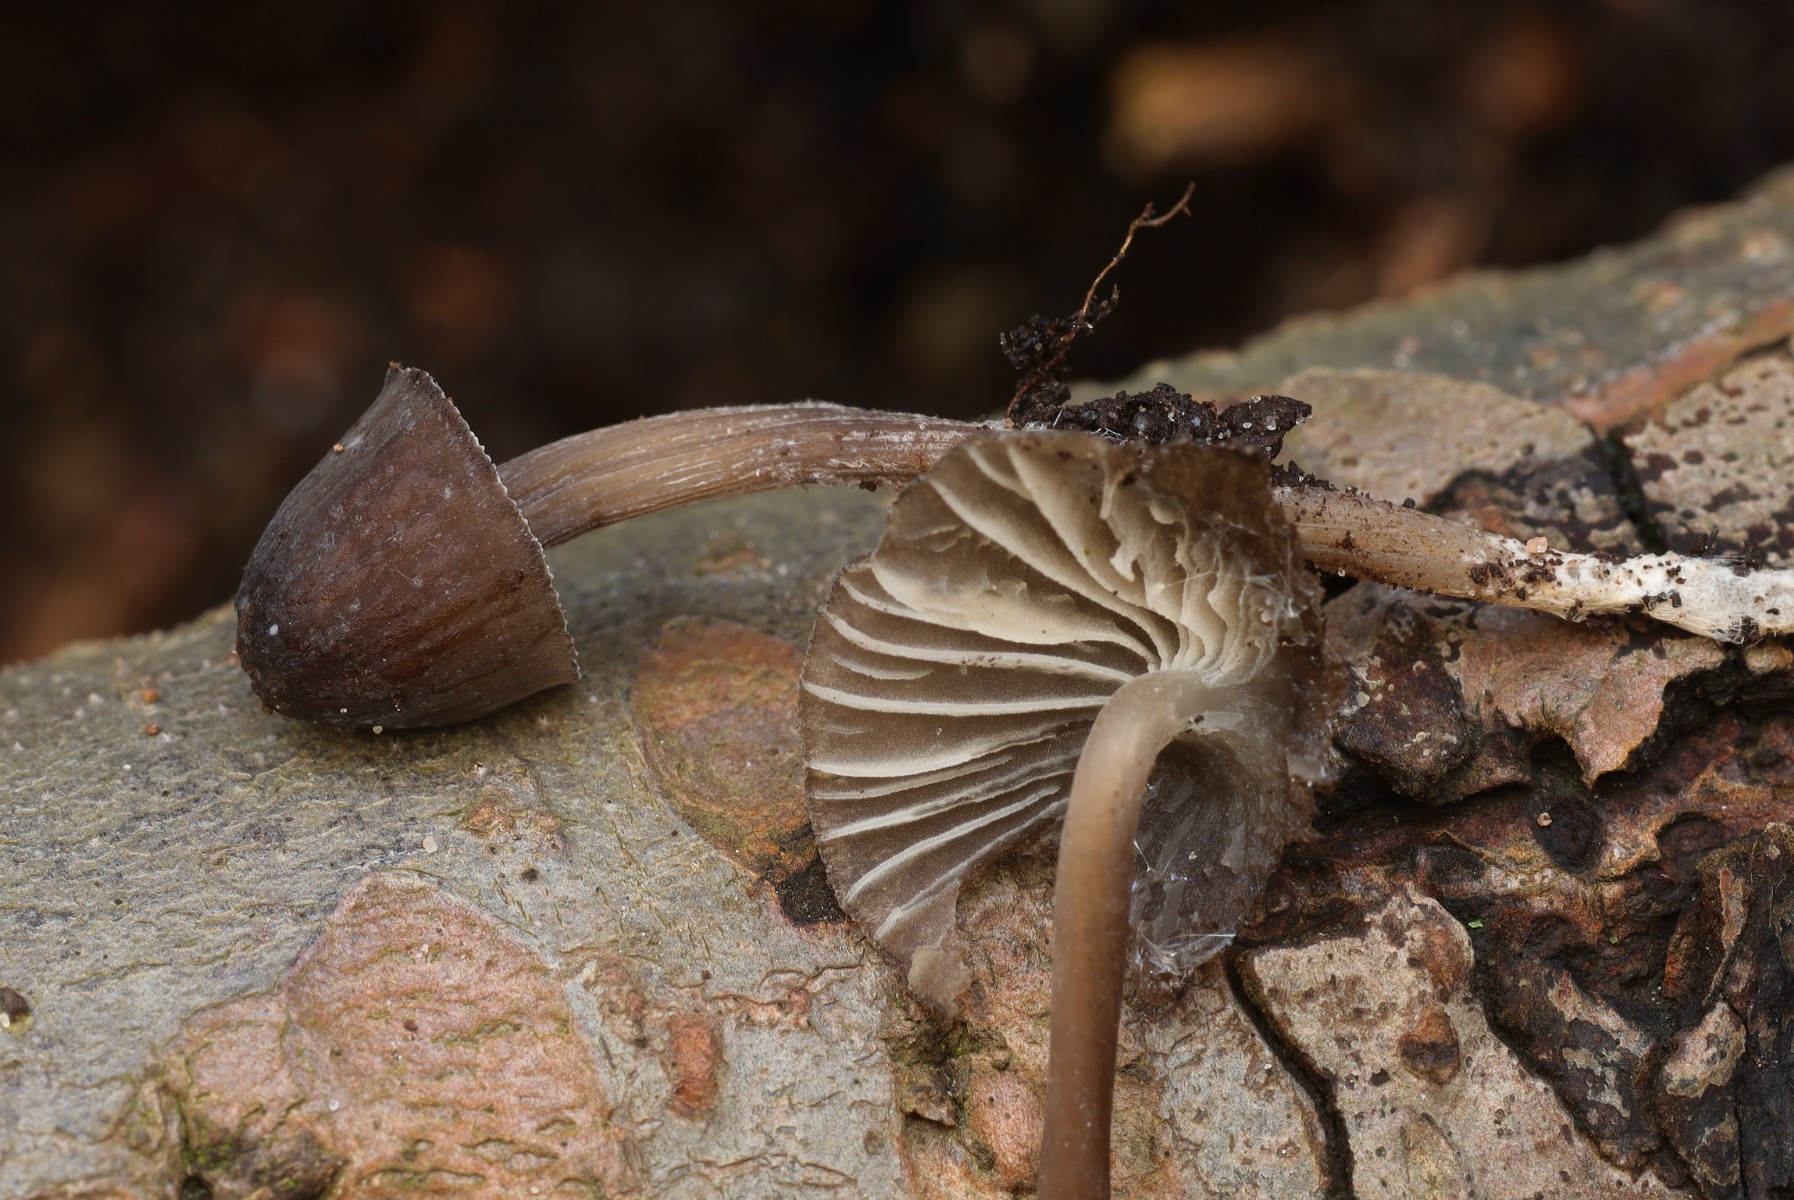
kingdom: Fungi
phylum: Basidiomycota
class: Agaricomycetes
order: Agaricales
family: Mycenaceae
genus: Mycena
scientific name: Mycena
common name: huesvamp
